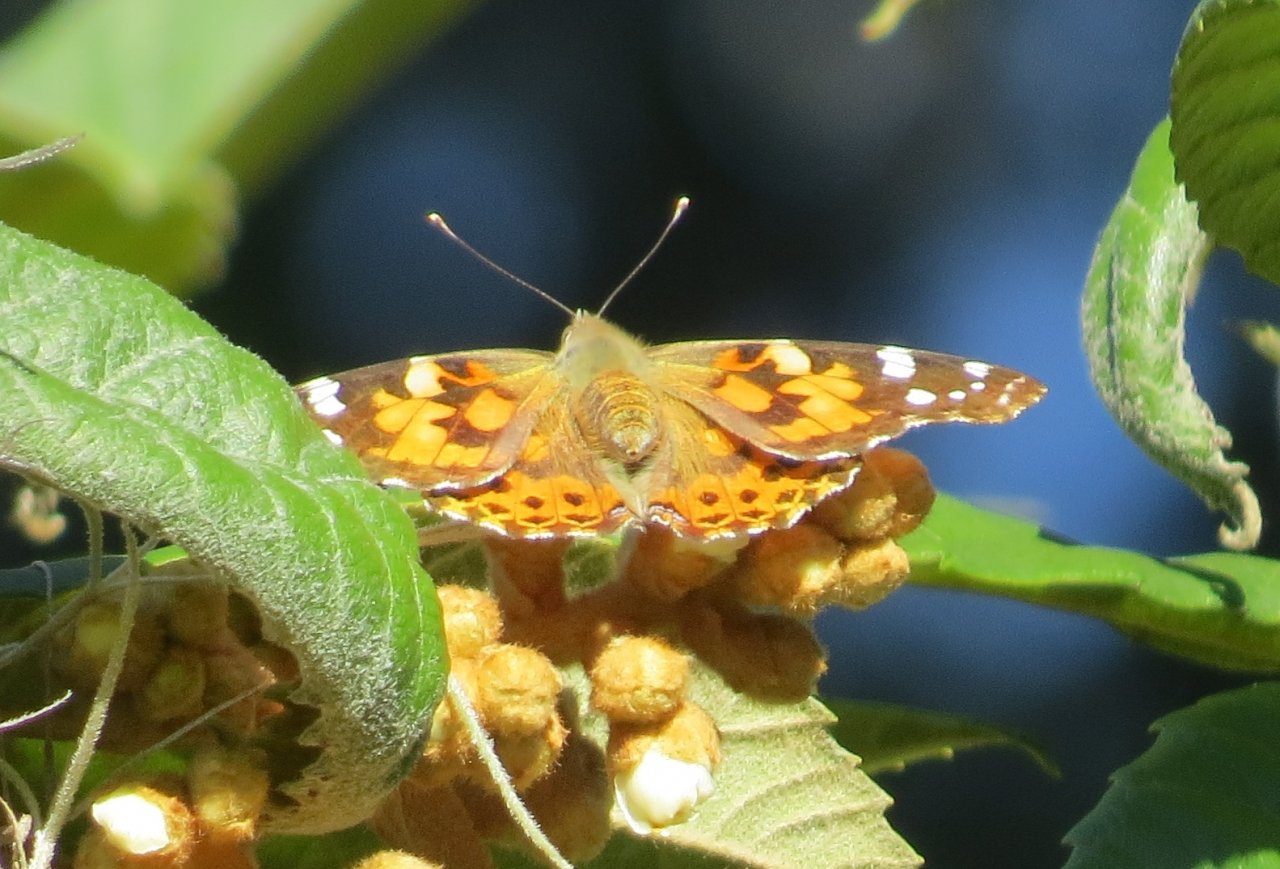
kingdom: Animalia
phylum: Arthropoda
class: Insecta
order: Lepidoptera
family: Nymphalidae
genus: Vanessa
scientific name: Vanessa cardui
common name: Painted Lady
